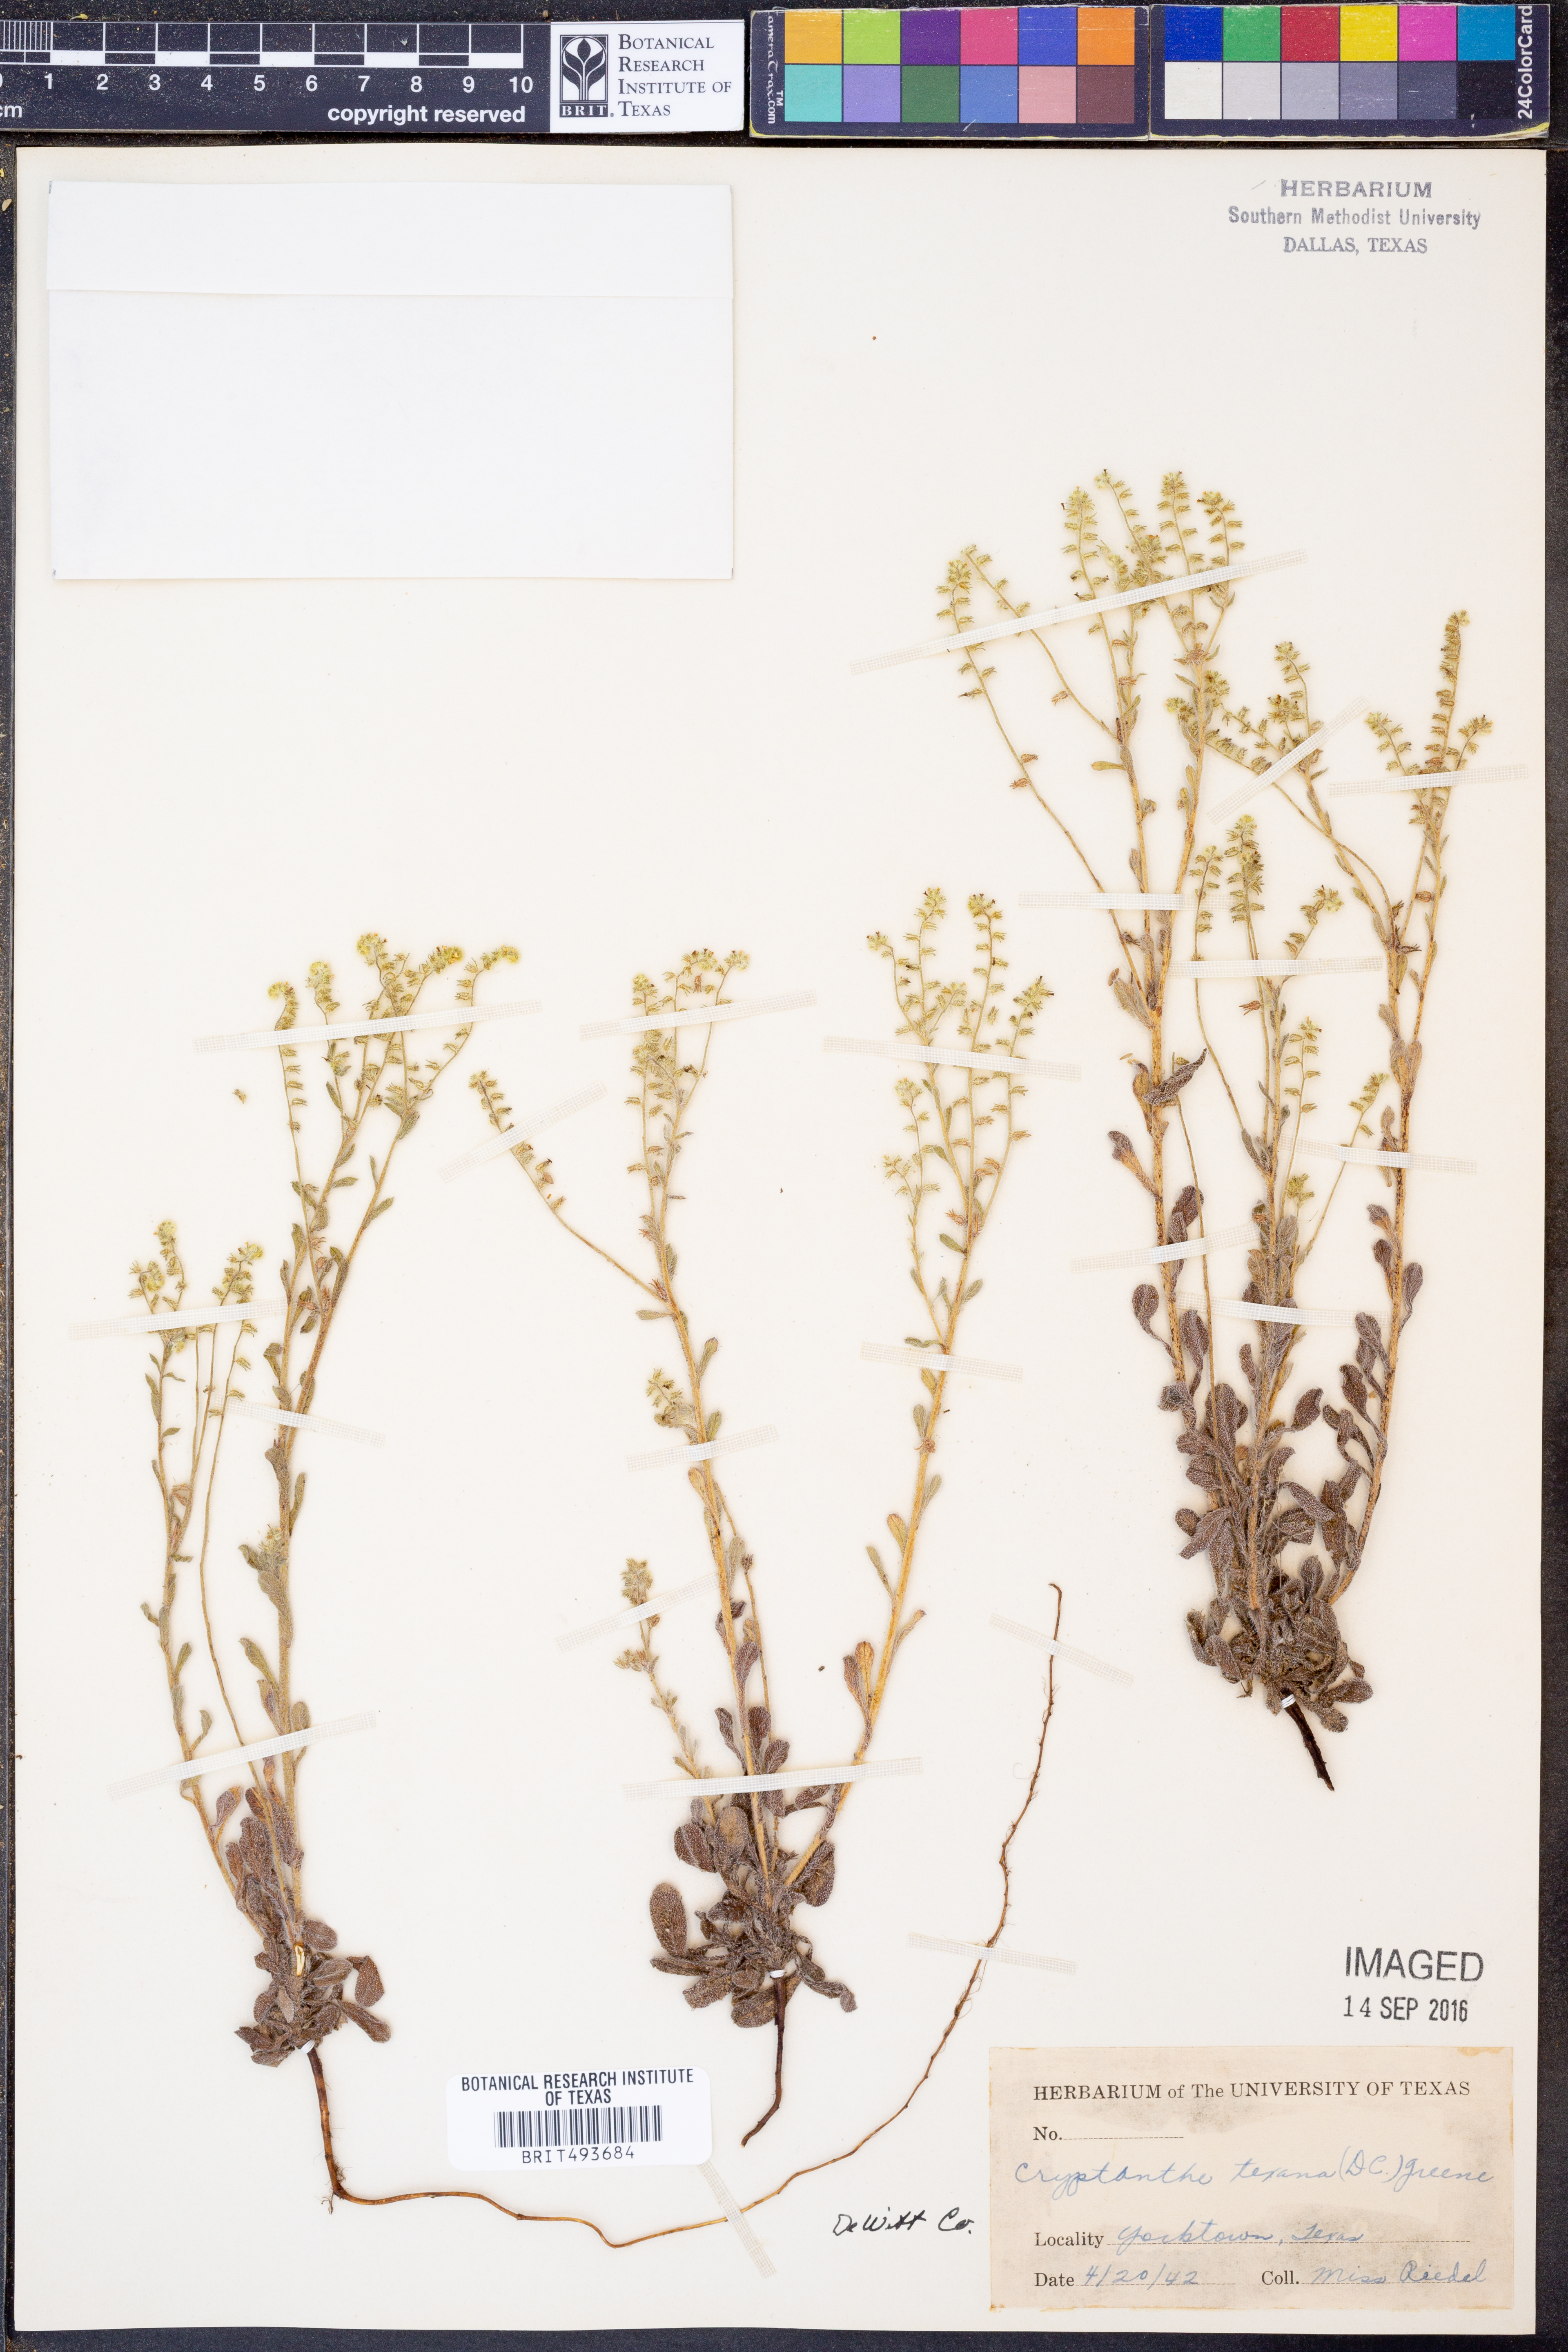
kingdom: Plantae
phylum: Tracheophyta
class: Magnoliopsida
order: Boraginales
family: Boraginaceae
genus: Cryptantha
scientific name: Cryptantha texana
